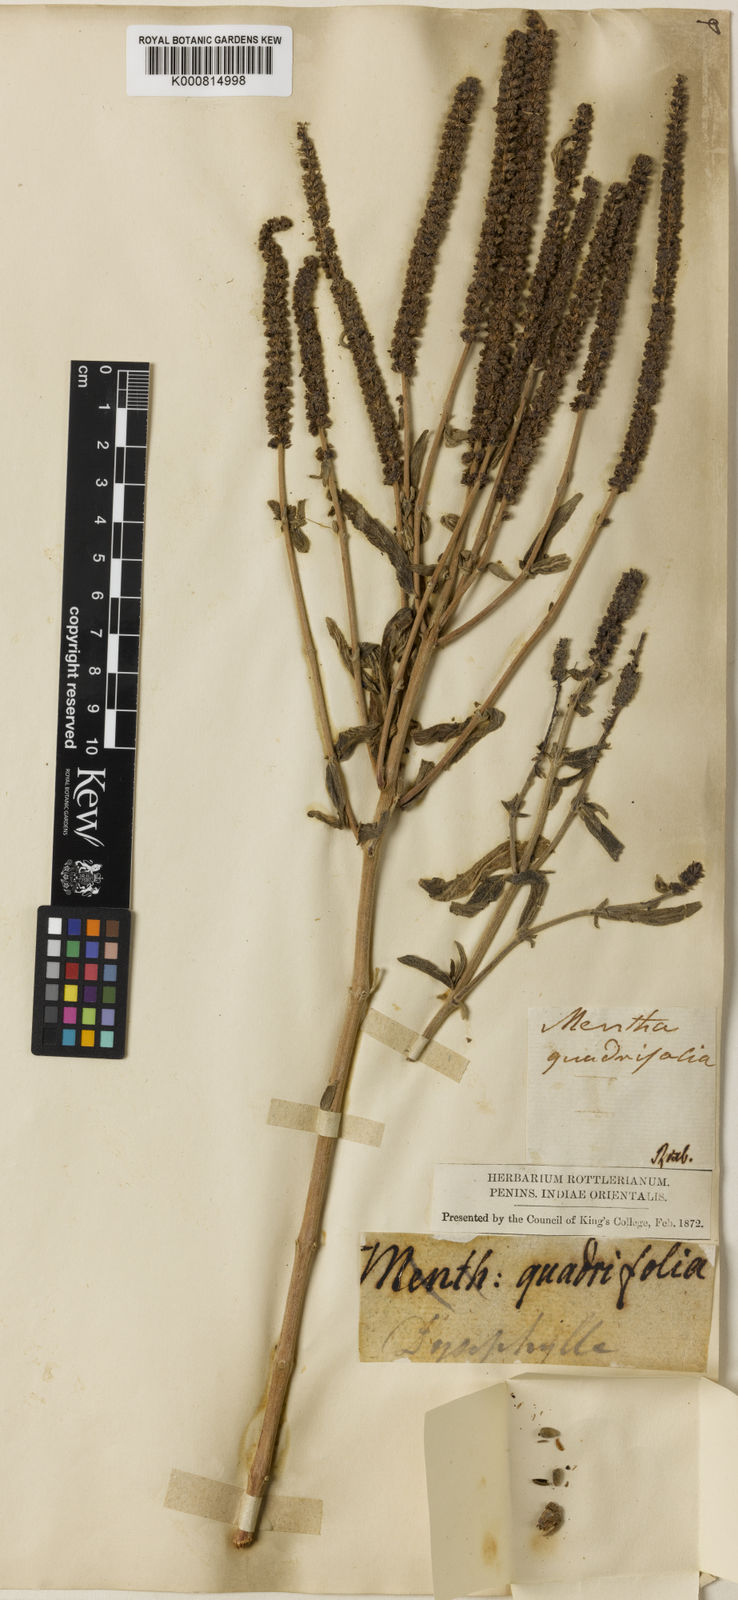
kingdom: Plantae
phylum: Tracheophyta
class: Magnoliopsida
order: Lamiales
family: Lamiaceae
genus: Pogostemon
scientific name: Pogostemon quadrifolius
